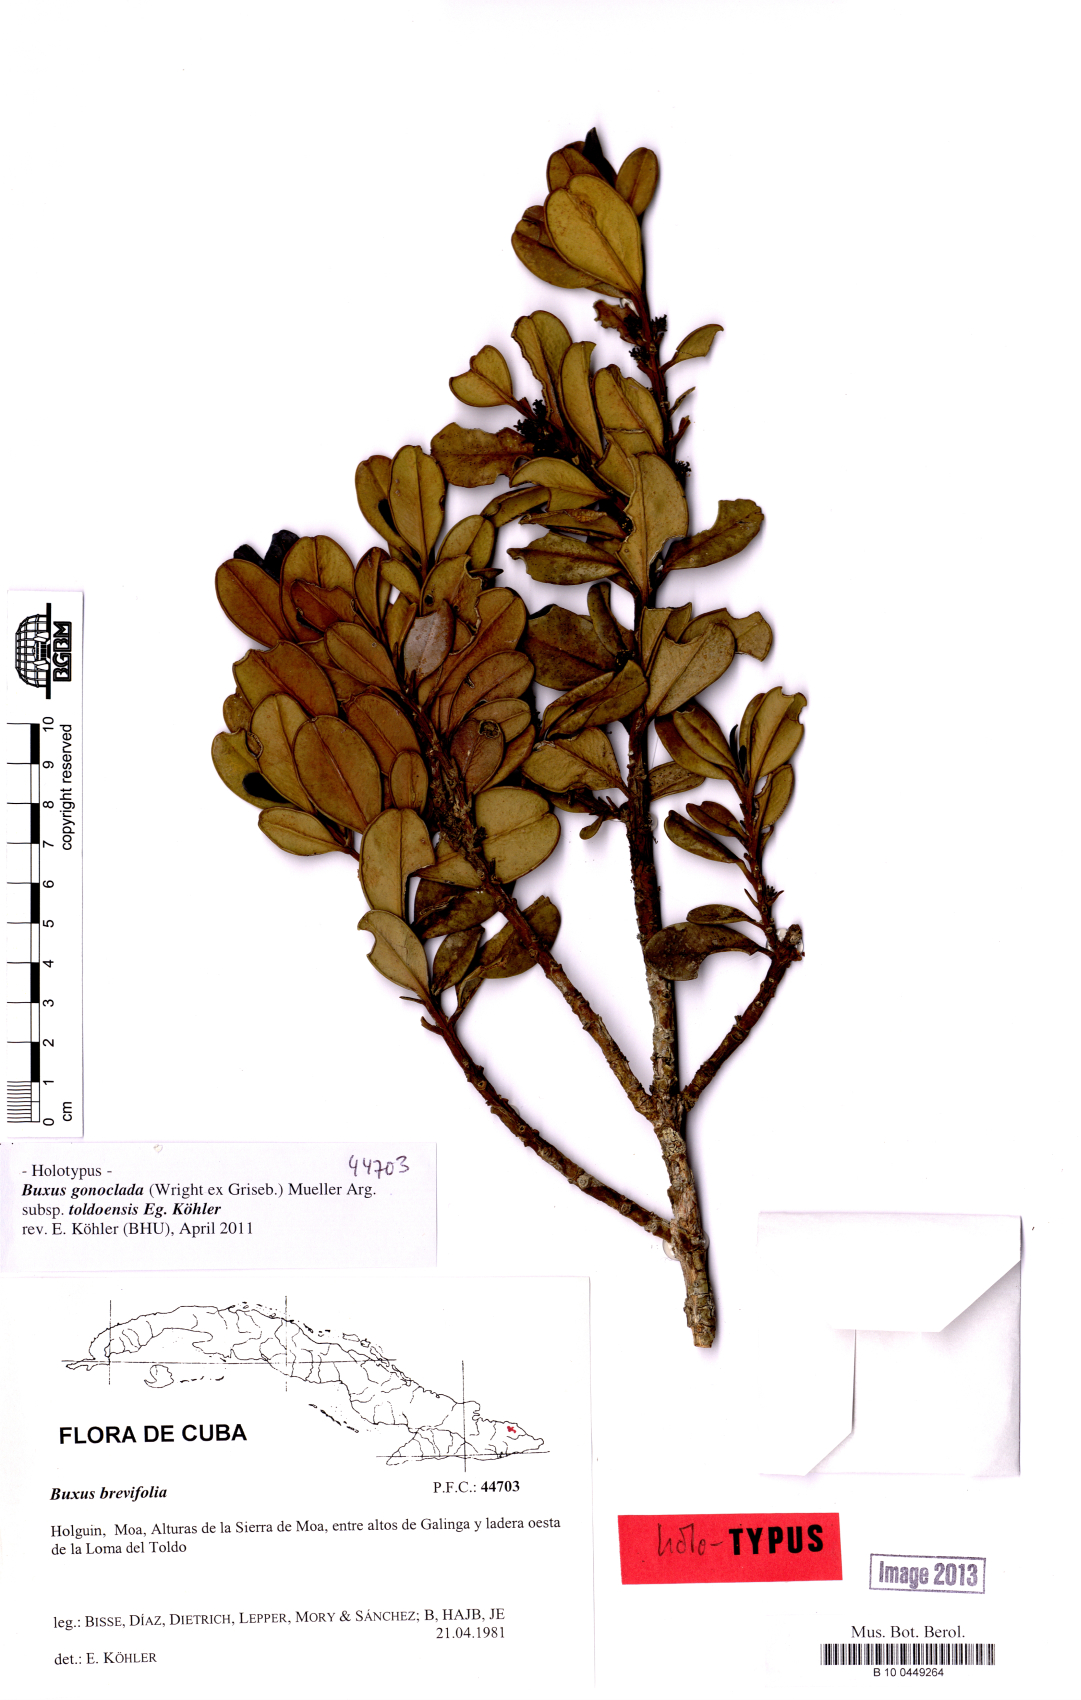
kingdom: Plantae
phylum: Tracheophyta
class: Magnoliopsida
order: Buxales
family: Buxaceae
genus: Buxus
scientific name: Buxus gonoclada
